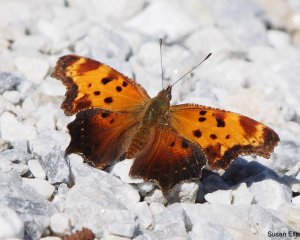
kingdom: Animalia
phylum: Arthropoda
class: Insecta
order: Lepidoptera
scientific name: Lepidoptera
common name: Butterflies
